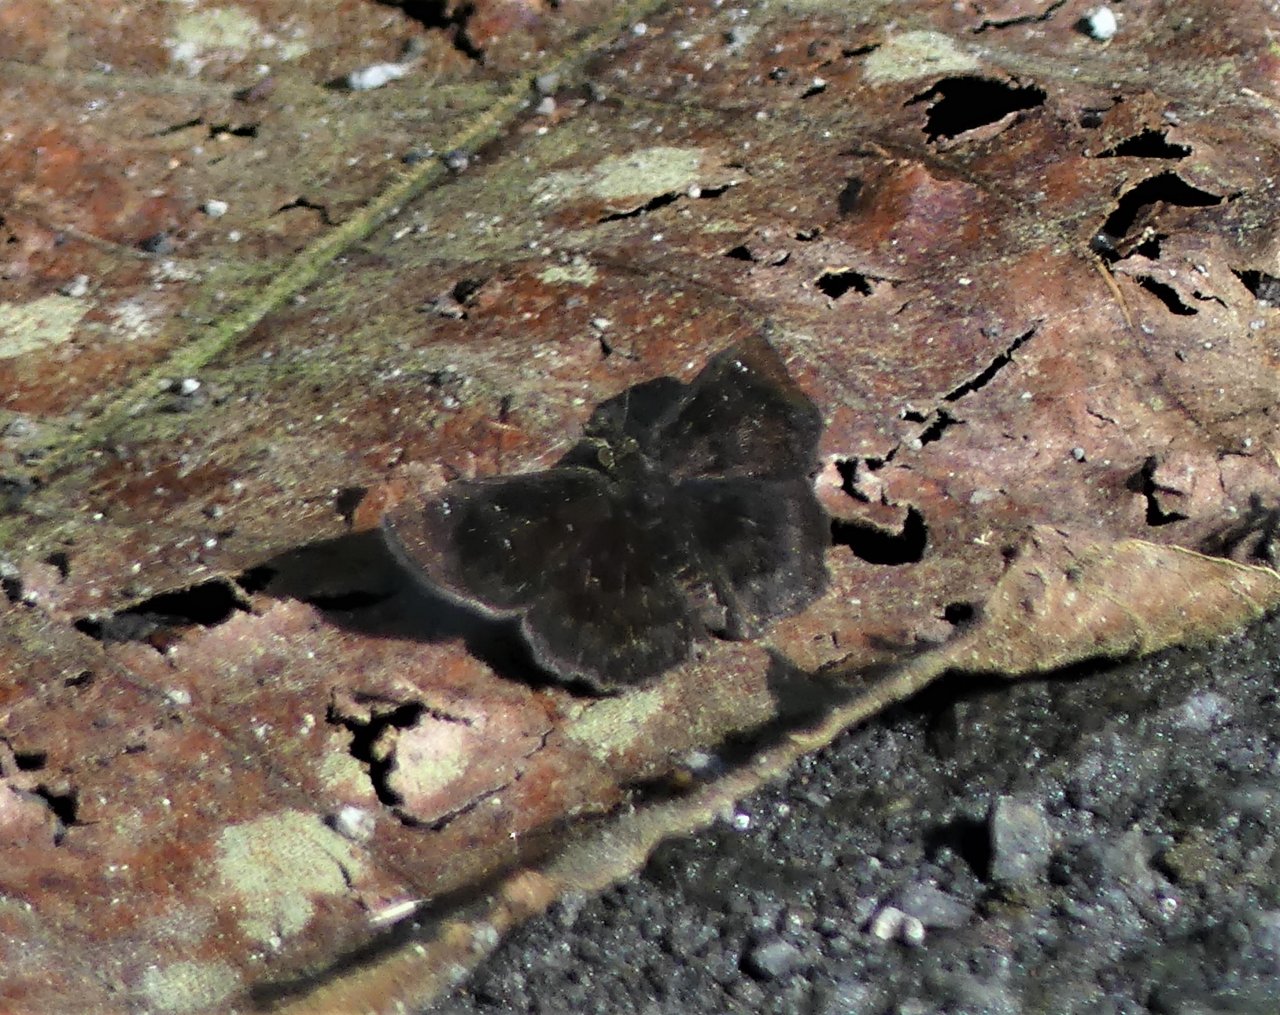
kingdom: Animalia
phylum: Arthropoda
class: Insecta
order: Lepidoptera
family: Hesperiidae
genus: Staphylus
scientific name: Staphylus ascalaphus
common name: Central American Sootywing
